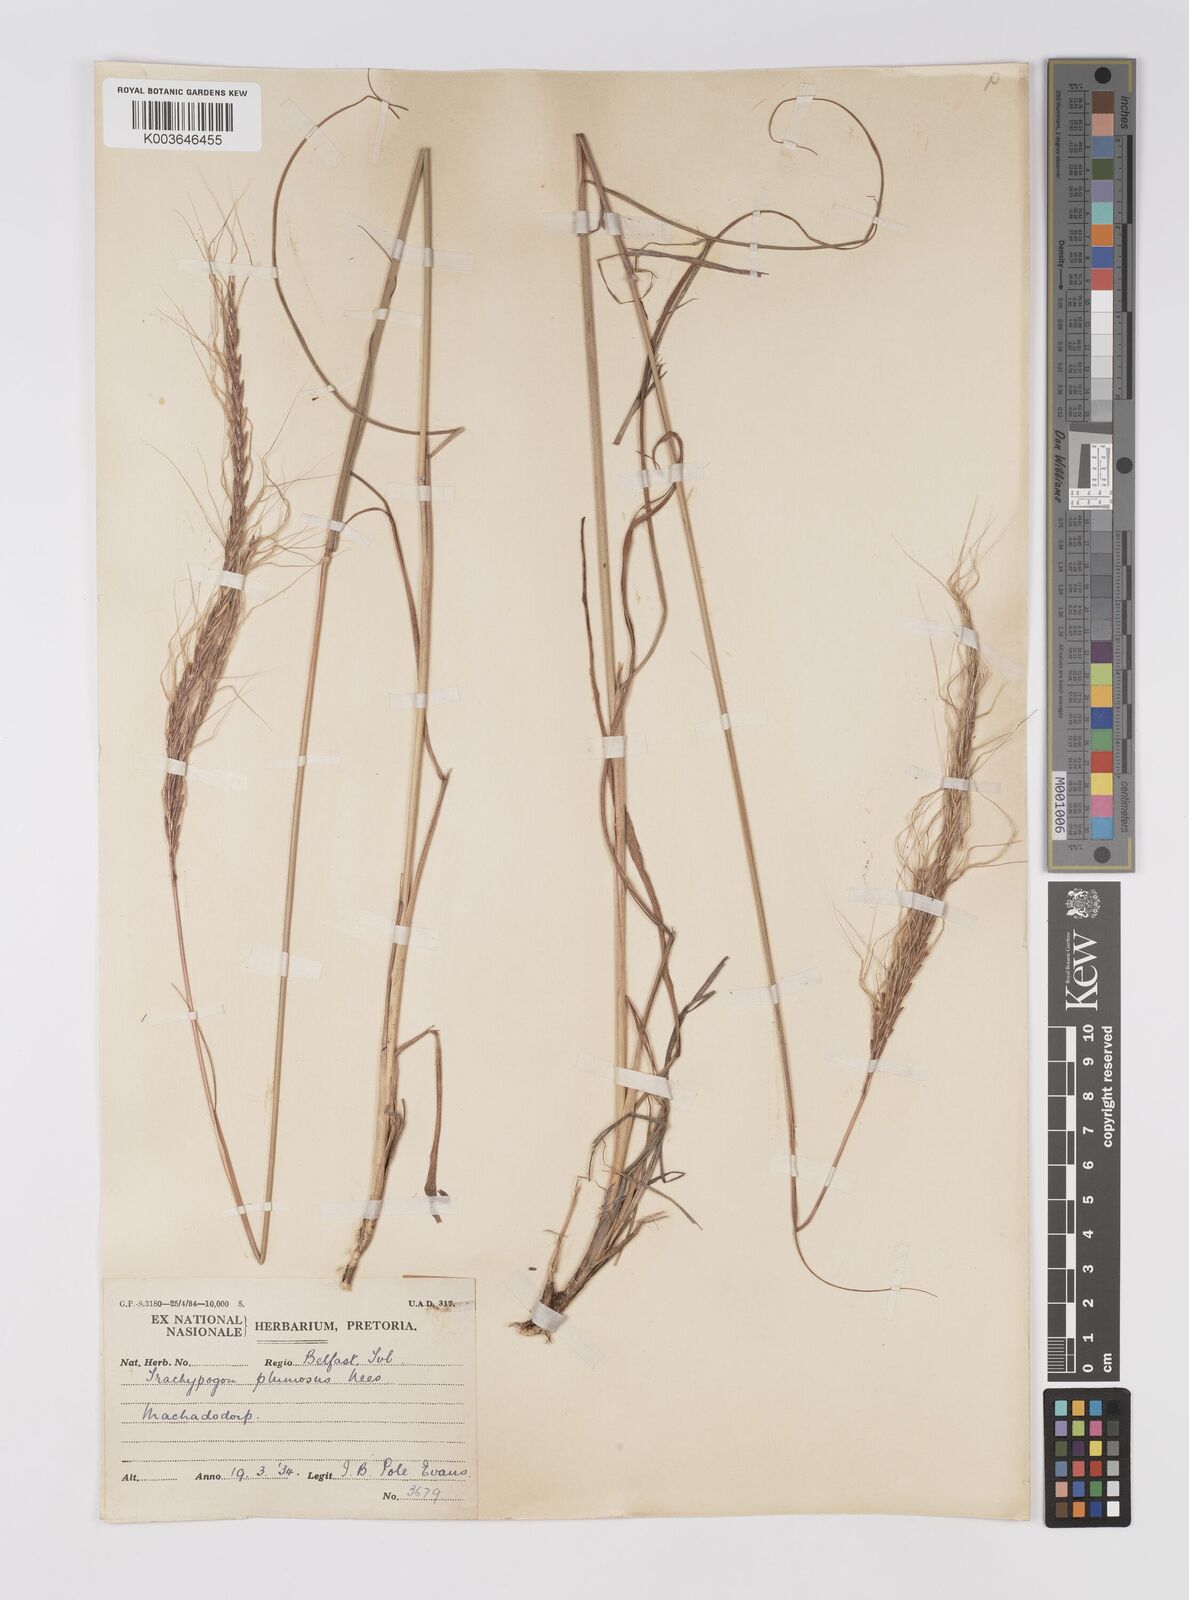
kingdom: Plantae
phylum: Tracheophyta
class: Liliopsida
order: Poales
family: Poaceae
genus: Trachypogon
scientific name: Trachypogon spicatus
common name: Crinkle-awn
